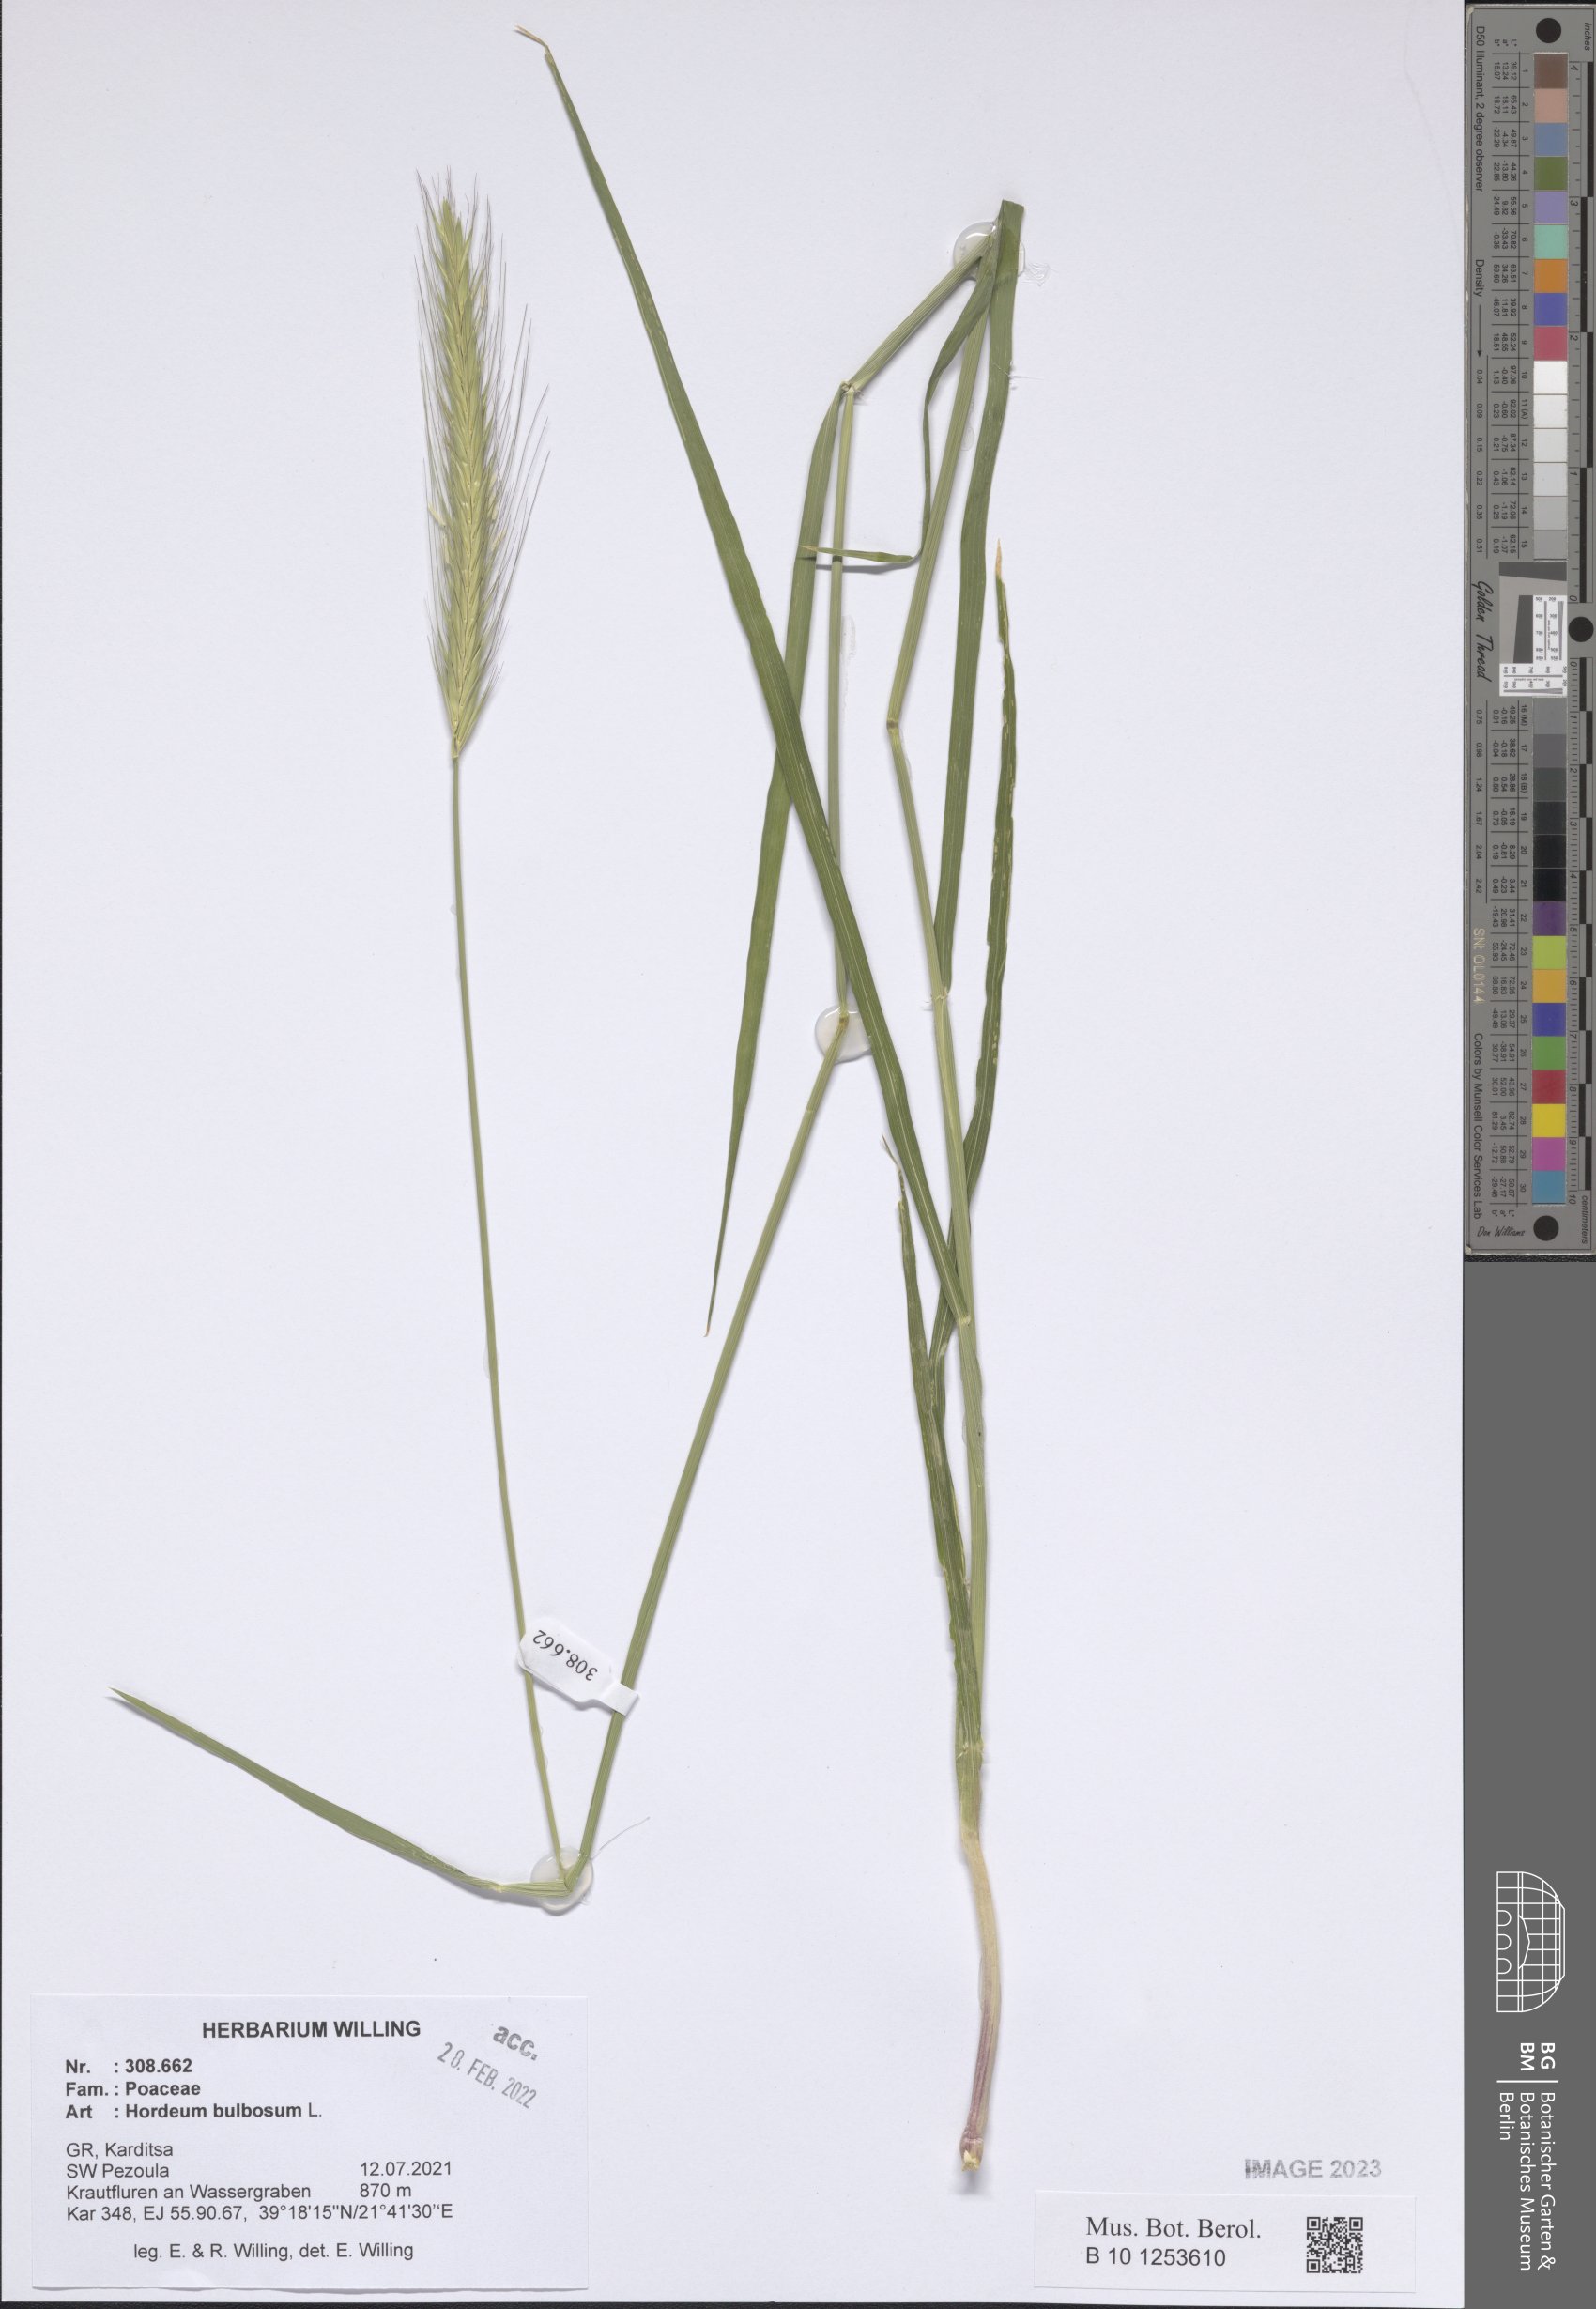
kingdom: Plantae
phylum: Tracheophyta
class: Liliopsida
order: Poales
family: Poaceae
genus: Hordeum
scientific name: Hordeum bulbosum
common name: Bulbous barley
